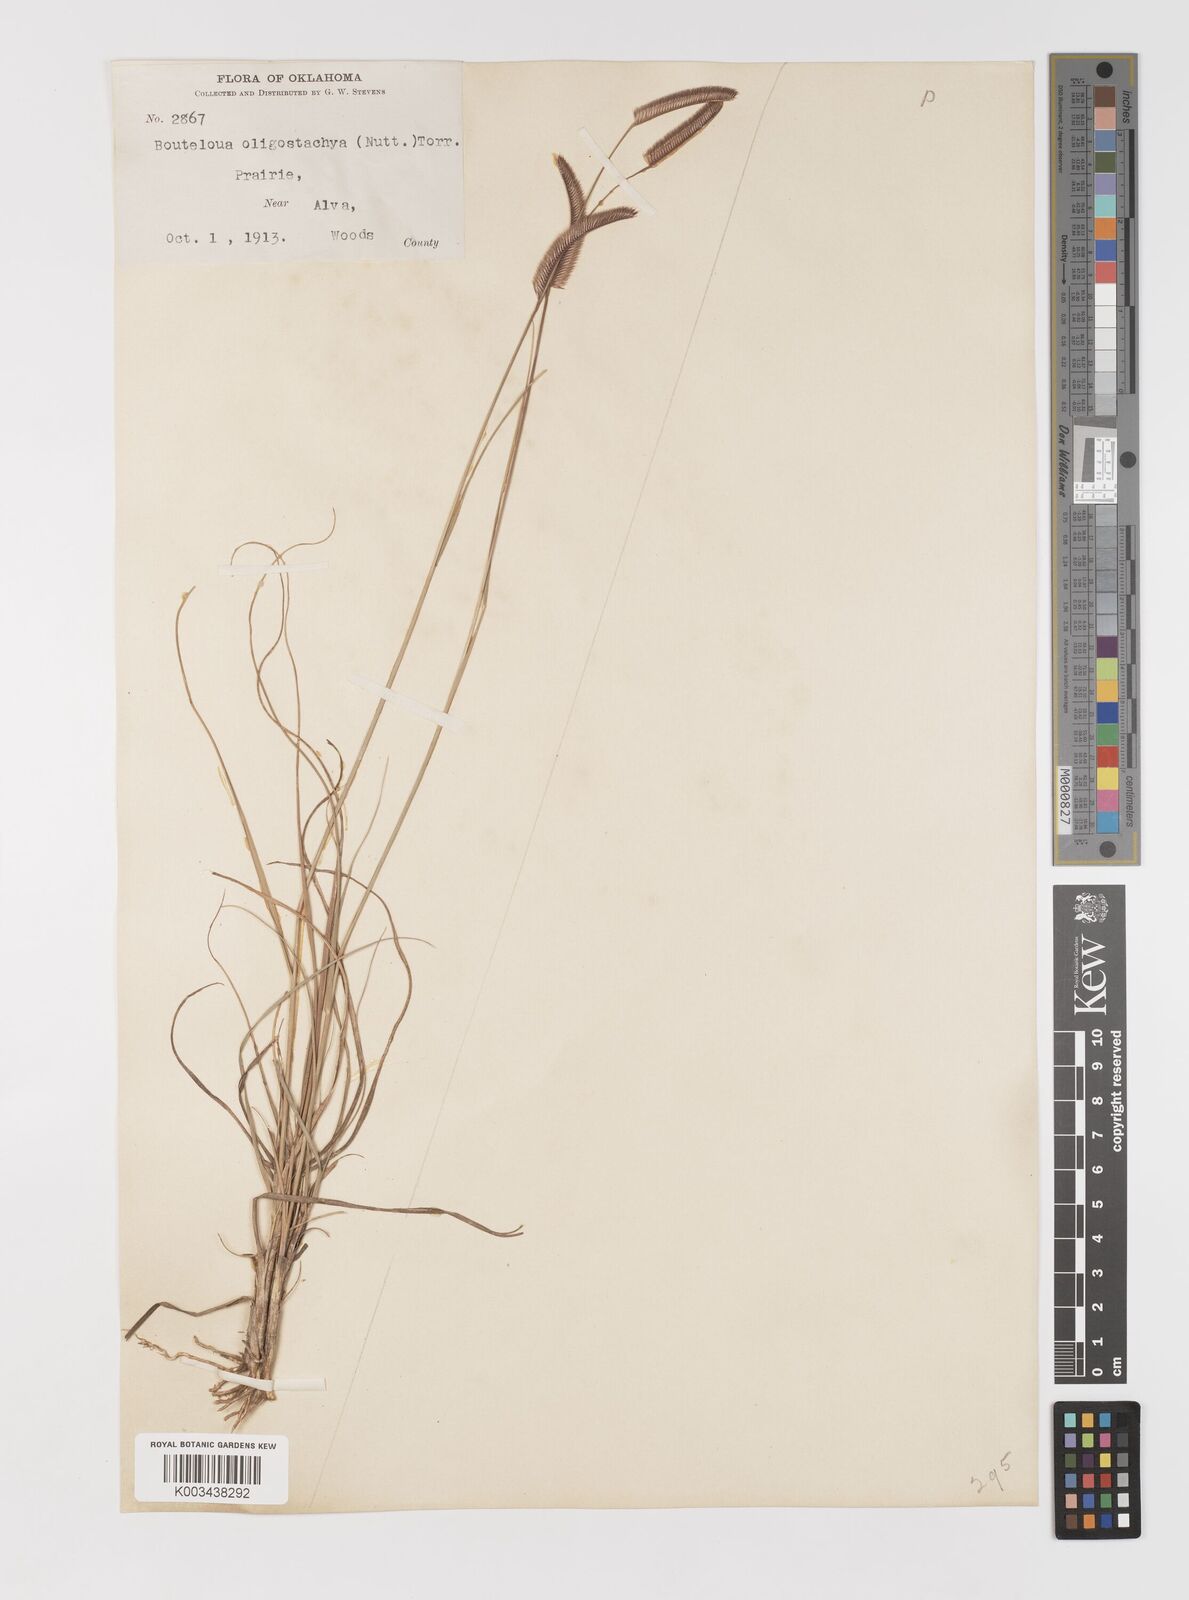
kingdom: Plantae
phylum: Tracheophyta
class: Liliopsida
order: Poales
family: Poaceae
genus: Bouteloua
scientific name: Bouteloua
